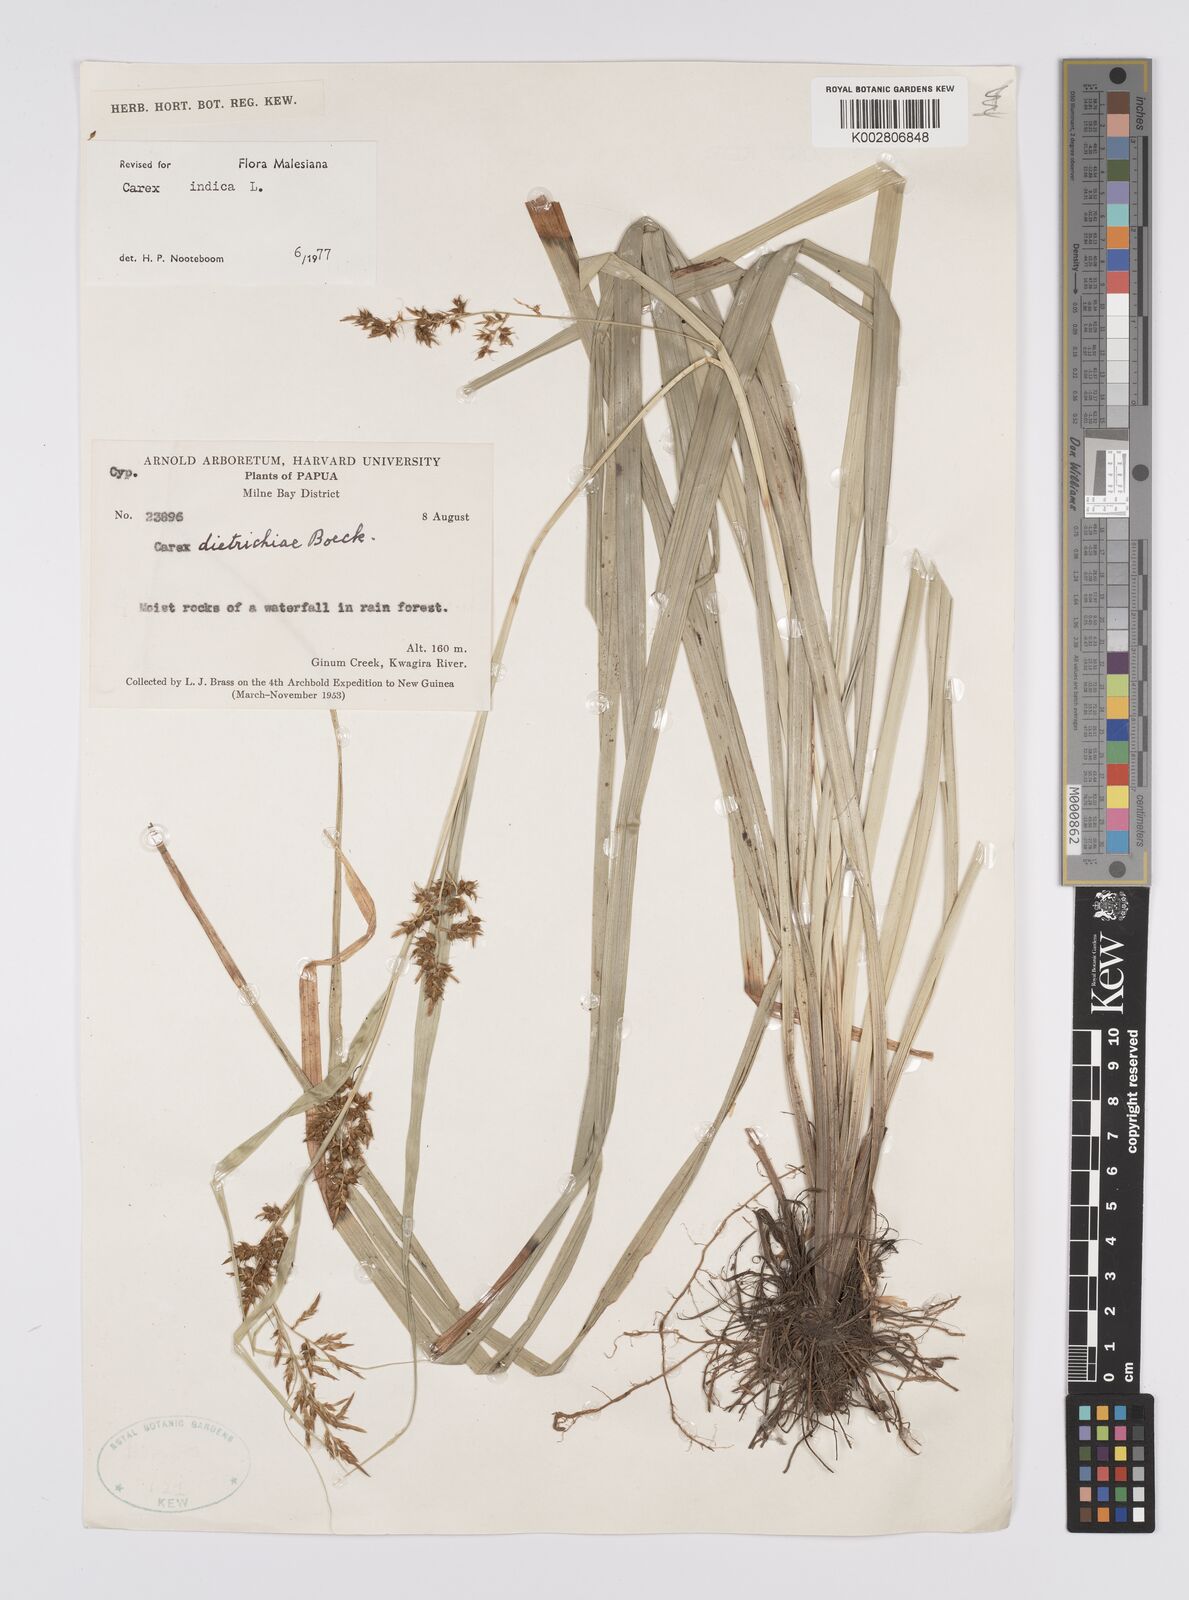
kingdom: Plantae
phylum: Tracheophyta
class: Liliopsida
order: Poales
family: Cyperaceae
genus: Carex
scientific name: Carex indica
